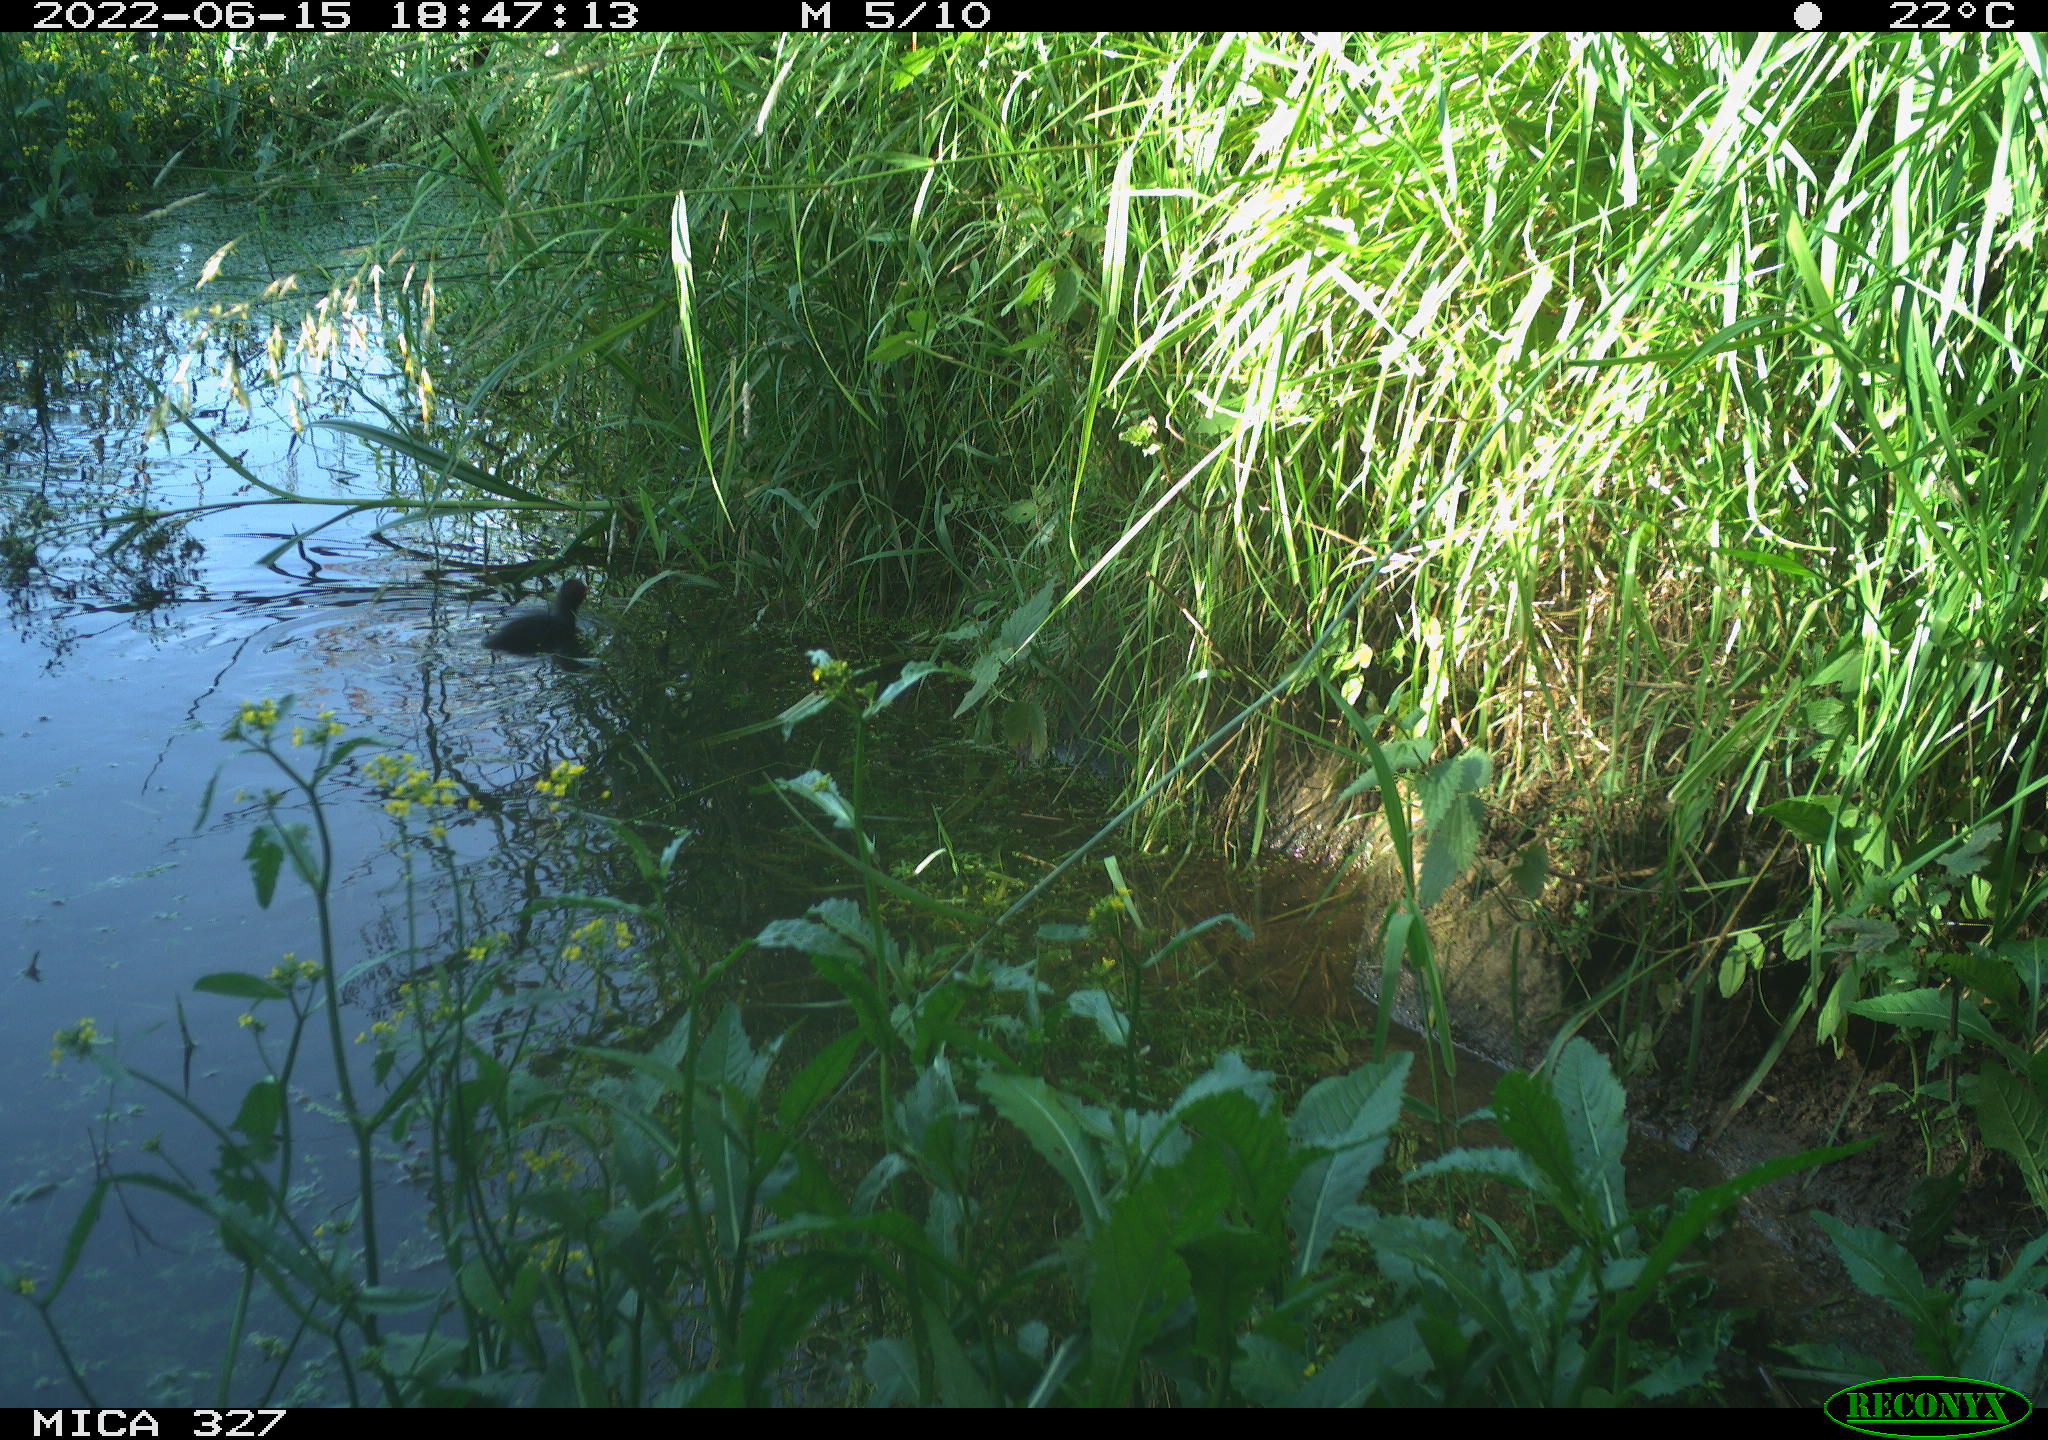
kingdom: Animalia
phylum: Chordata
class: Aves
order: Gruiformes
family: Rallidae
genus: Gallinula
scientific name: Gallinula chloropus
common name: Common moorhen
